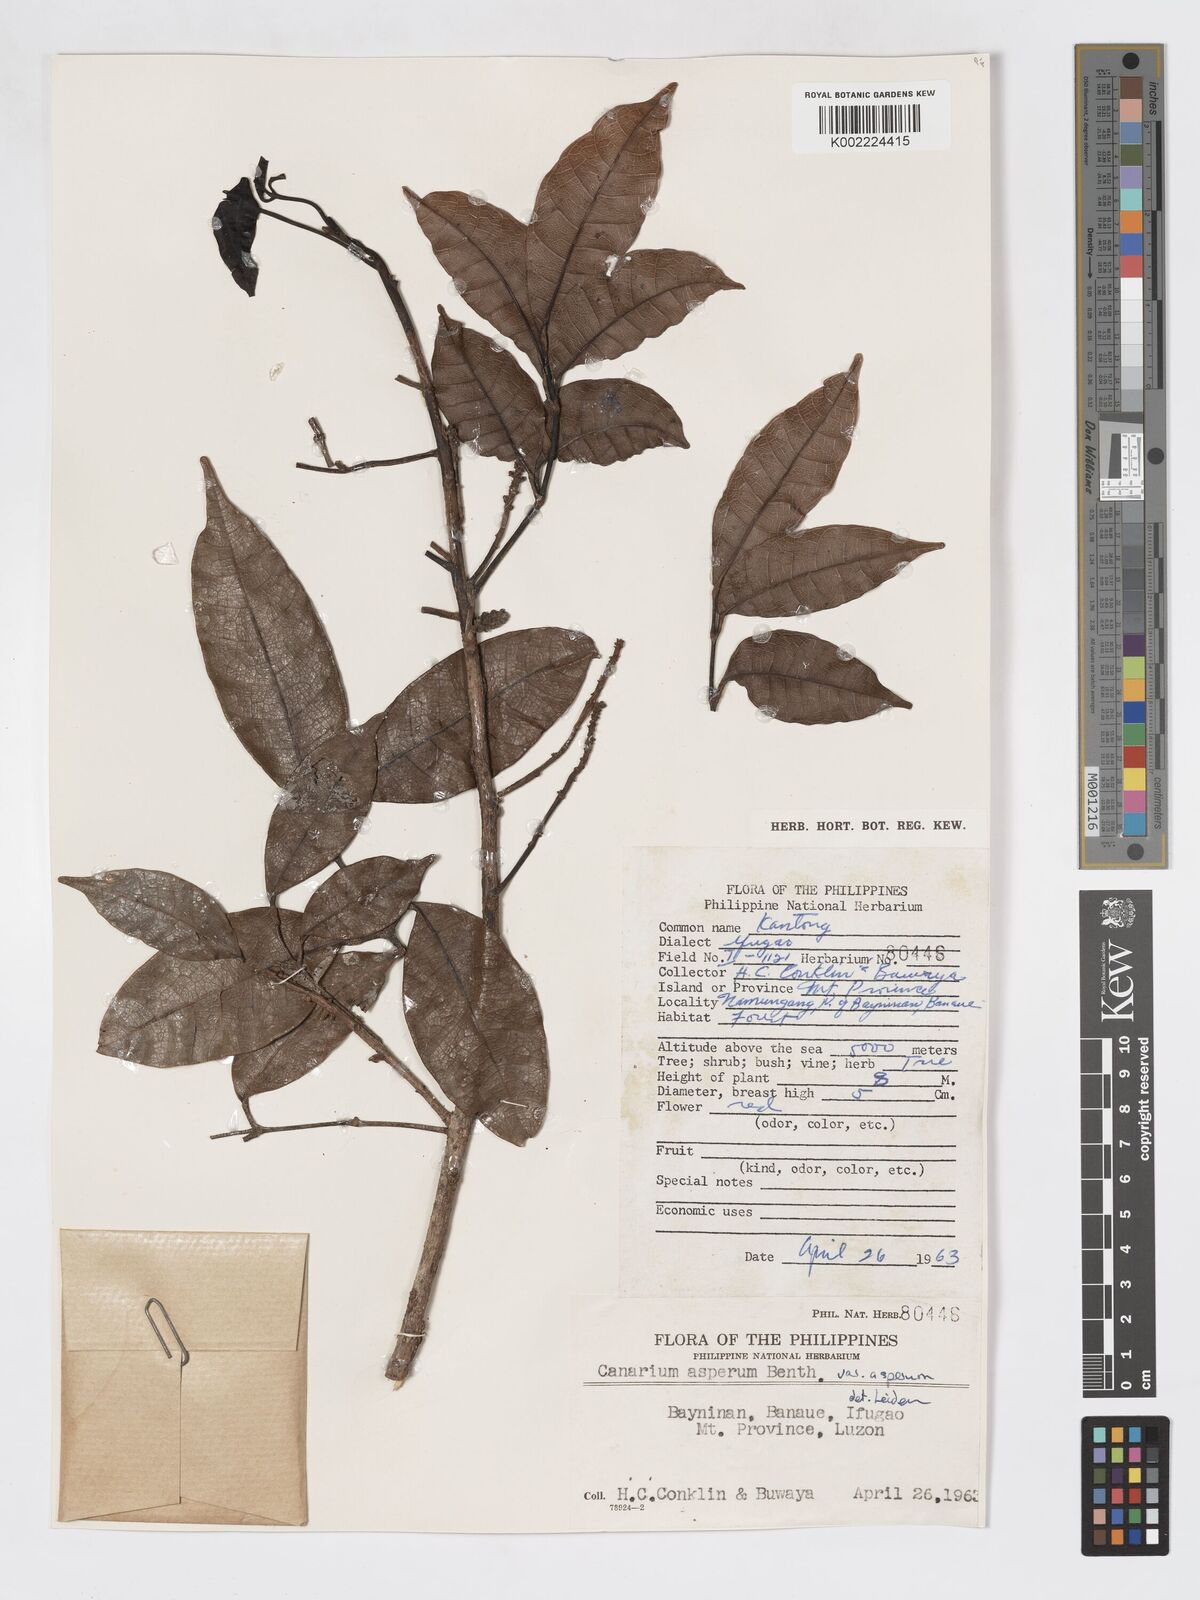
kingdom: Plantae
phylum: Tracheophyta
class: Magnoliopsida
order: Sapindales
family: Burseraceae
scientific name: Burseraceae
